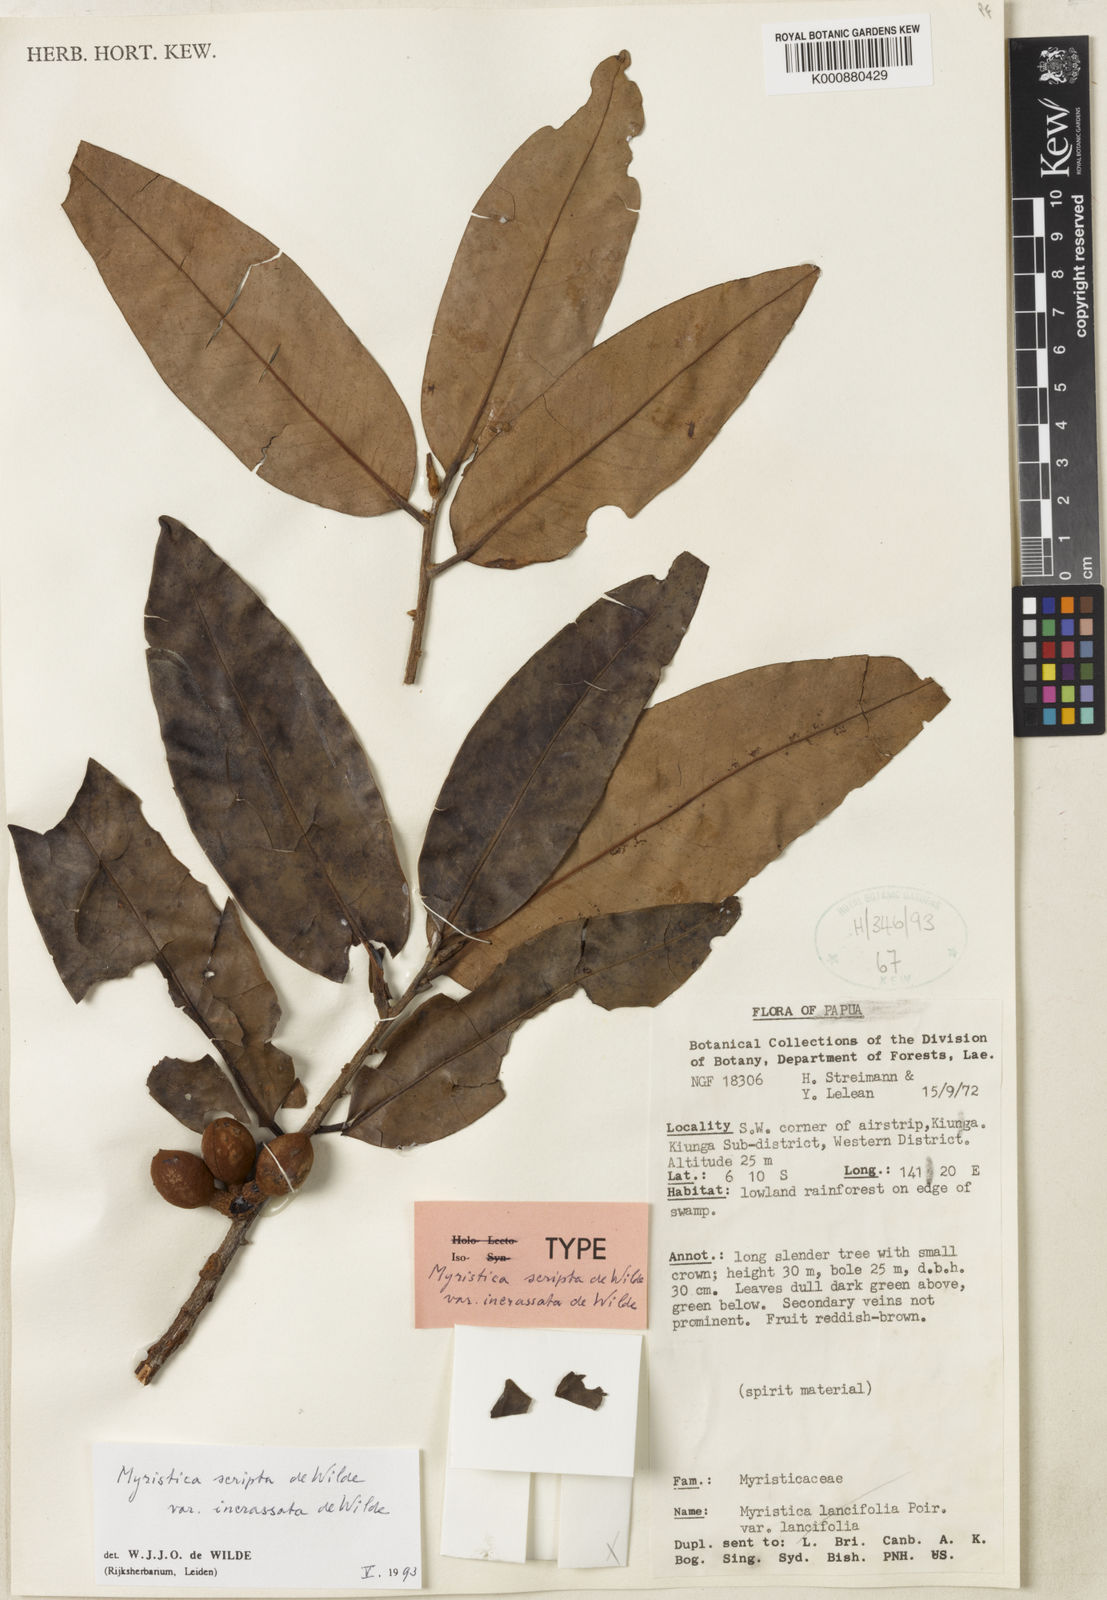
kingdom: Plantae
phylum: Tracheophyta
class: Magnoliopsida
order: Magnoliales
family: Myristicaceae
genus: Myristica
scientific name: Myristica scripta
